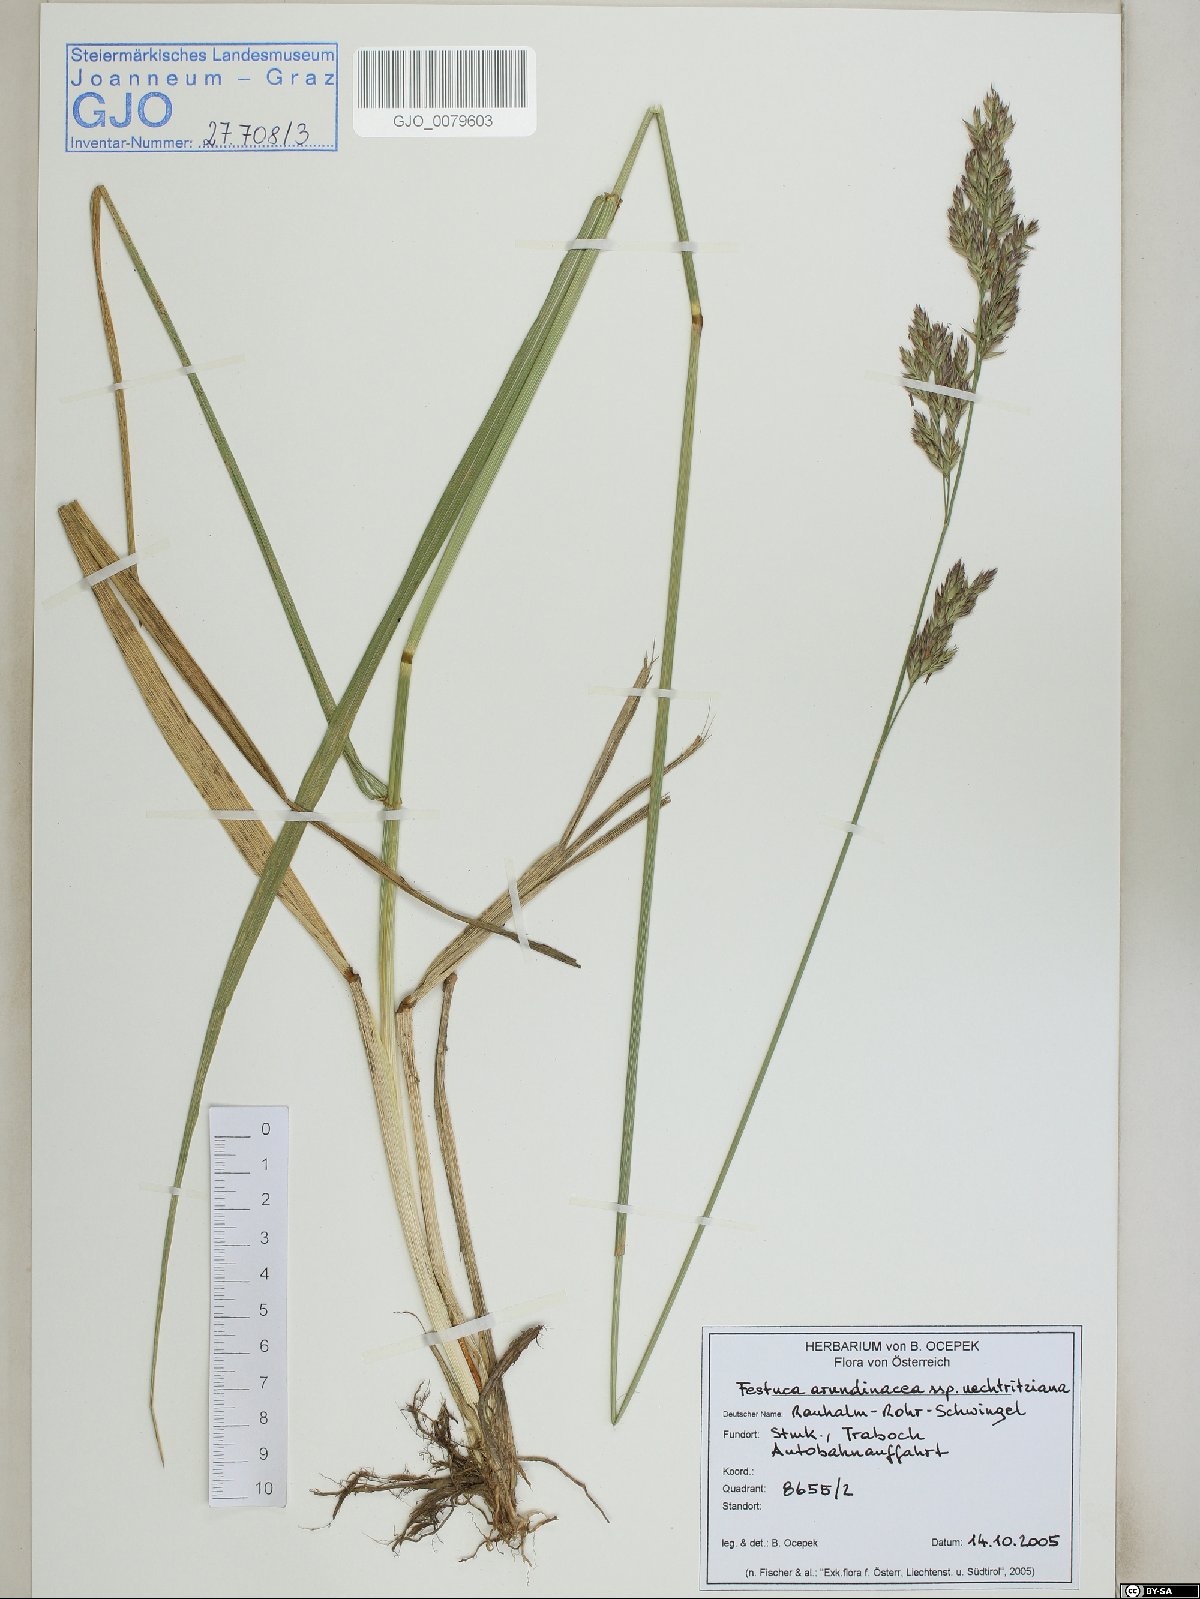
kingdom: Plantae
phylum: Tracheophyta
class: Liliopsida
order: Poales
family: Poaceae
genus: Lolium
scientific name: Lolium arundinaceum
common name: Reed fescue
